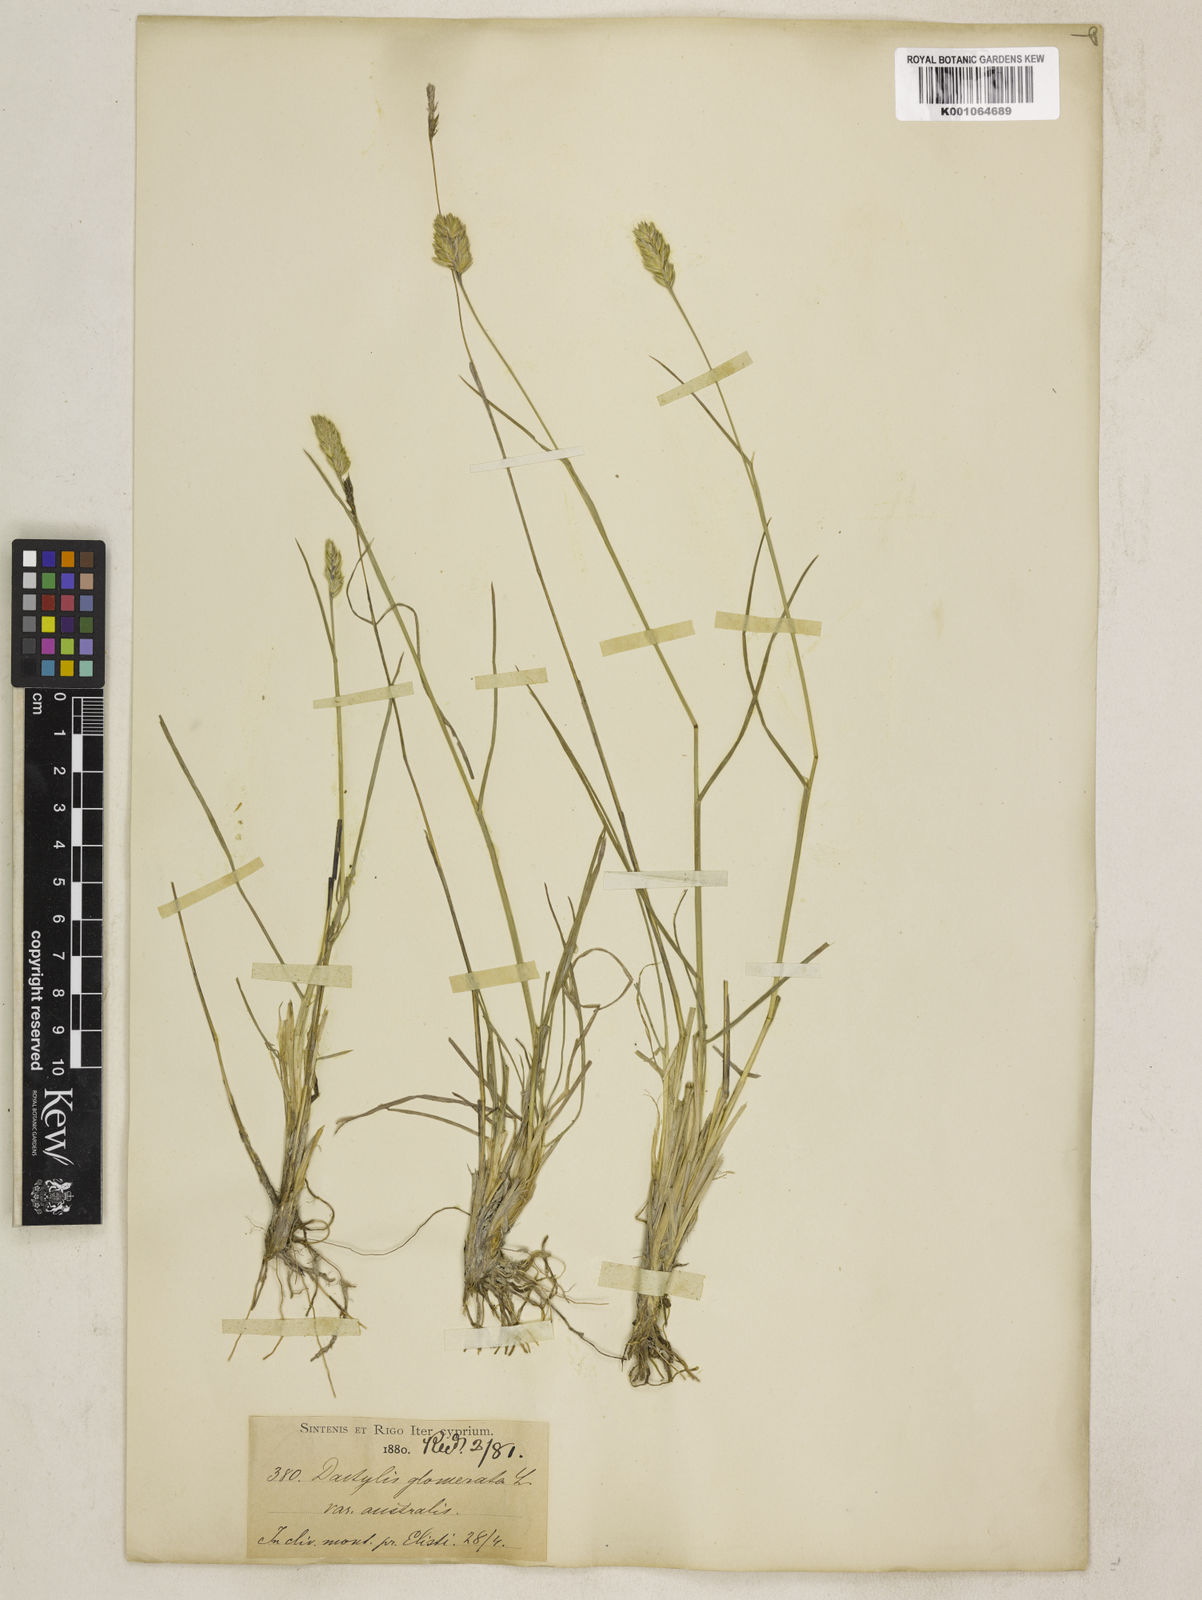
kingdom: Plantae
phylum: Tracheophyta
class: Liliopsida
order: Poales
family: Poaceae
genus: Dactylis
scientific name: Dactylis glomerata
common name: Orchardgrass
